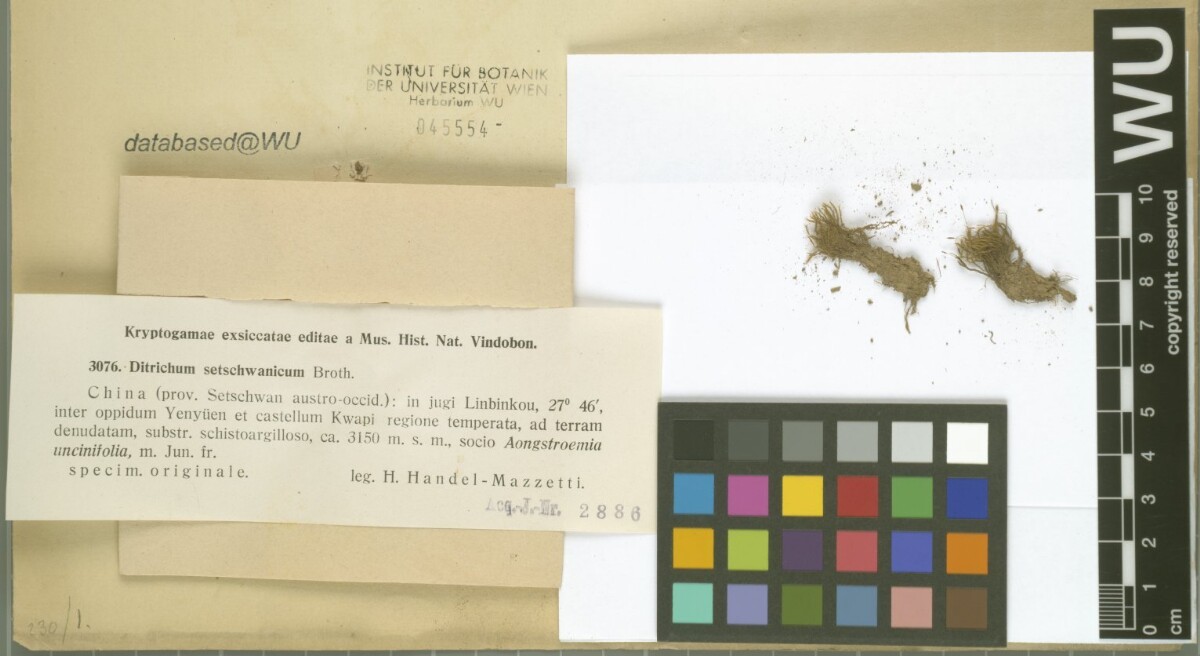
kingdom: Plantae
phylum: Bryophyta
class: Bryopsida
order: Dicranales
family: Ditrichaceae
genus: Ditrichum
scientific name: Ditrichum pusillum
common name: Brown cow-hair moss
